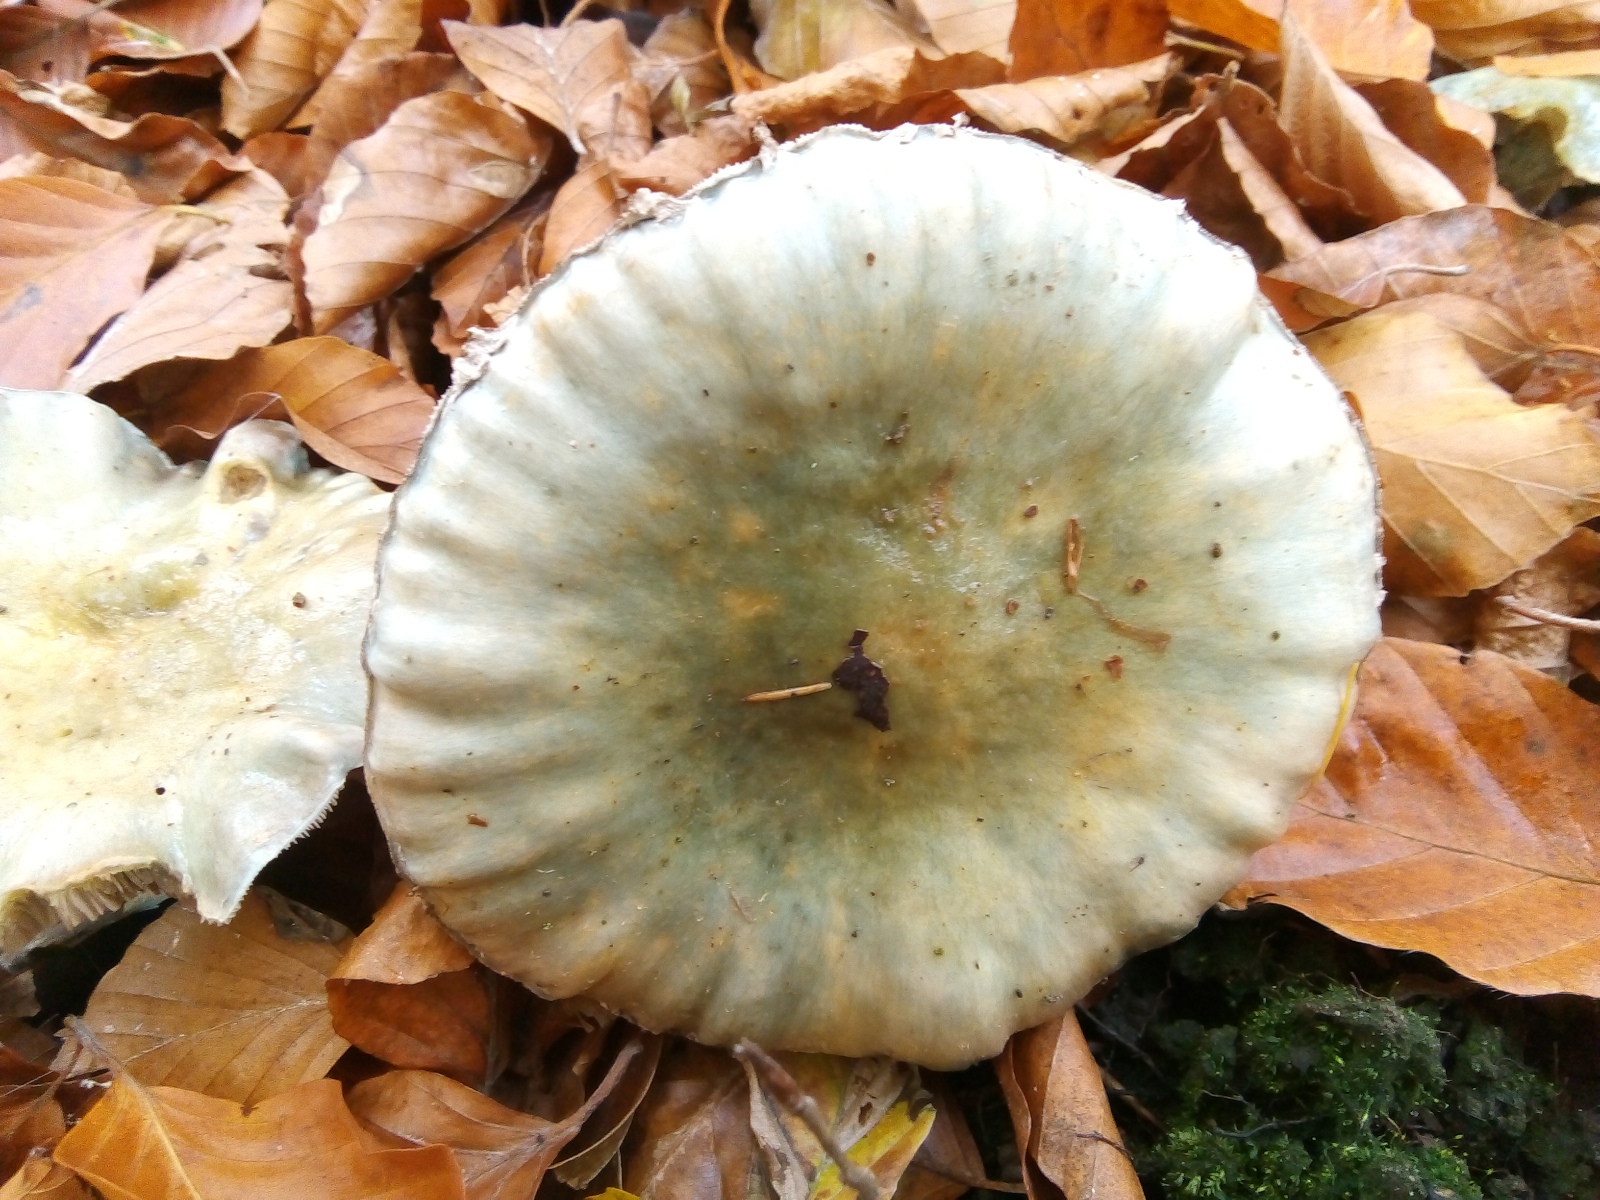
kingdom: Fungi
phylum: Basidiomycota
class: Agaricomycetes
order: Agaricales
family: Strophariaceae
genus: Stropharia
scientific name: Stropharia cyanea
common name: blågrøn bredblad
